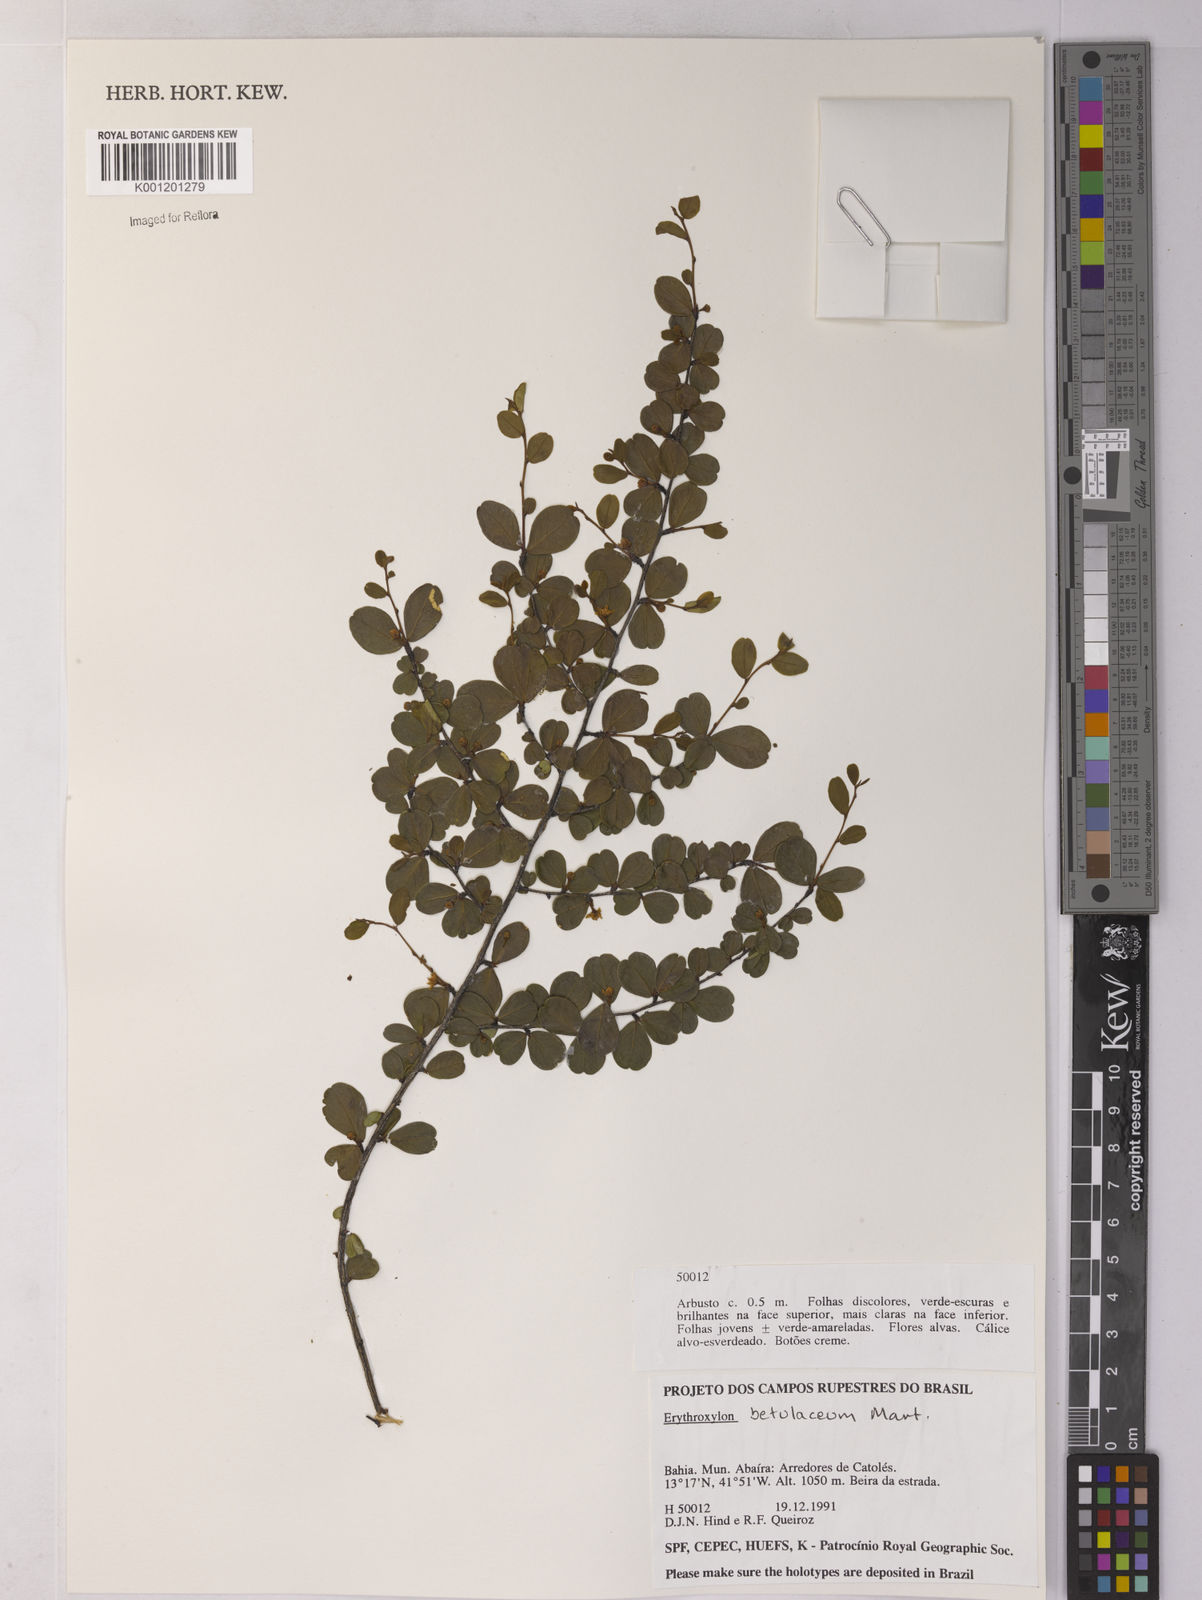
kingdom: Plantae
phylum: Tracheophyta
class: Magnoliopsida
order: Malpighiales
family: Erythroxylaceae
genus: Erythroxylum
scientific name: Erythroxylum betulaceum
